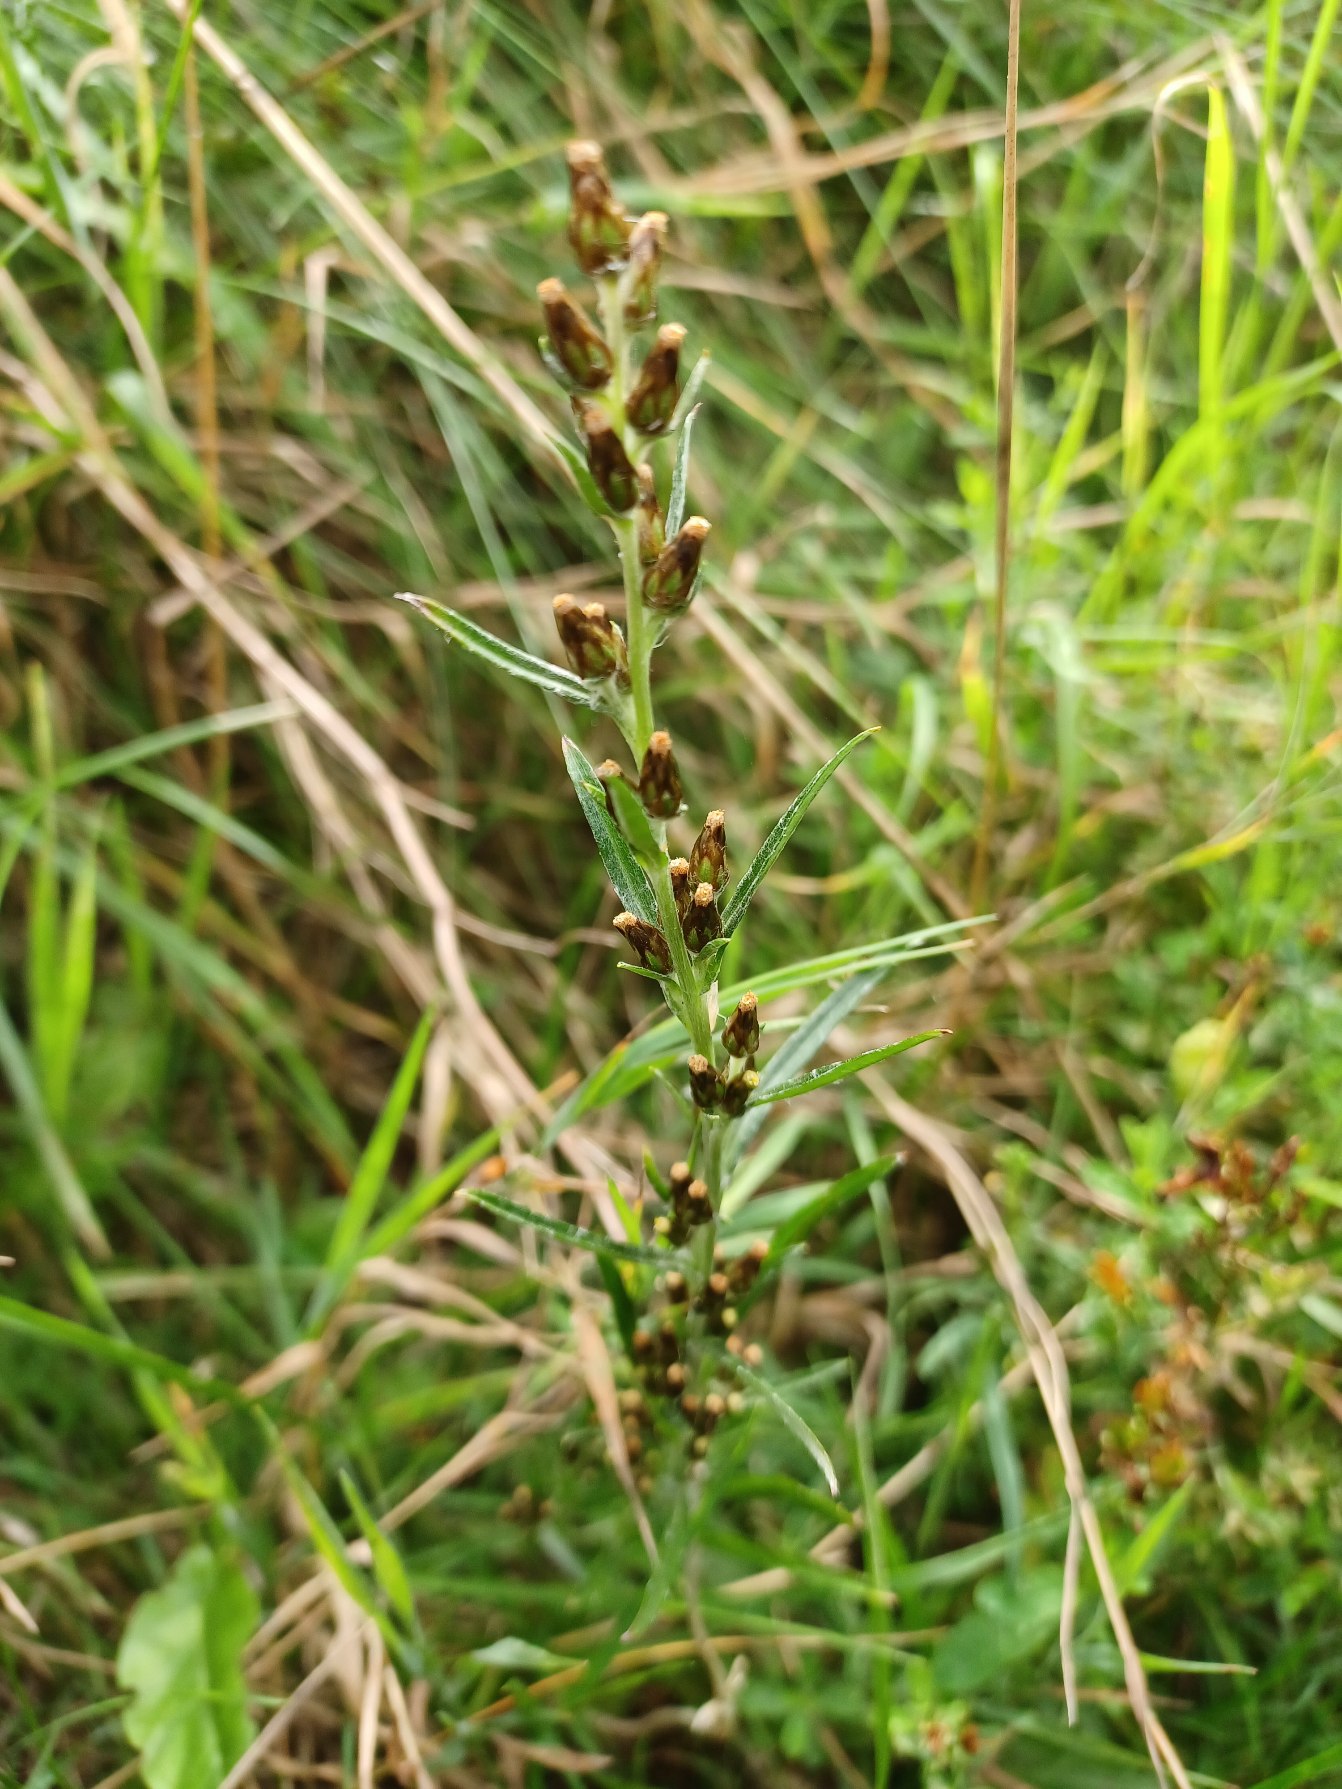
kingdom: Plantae
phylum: Tracheophyta
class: Magnoliopsida
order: Asterales
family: Asteraceae
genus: Omalotheca
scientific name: Omalotheca sylvatica
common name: Rank evighedsblomst
